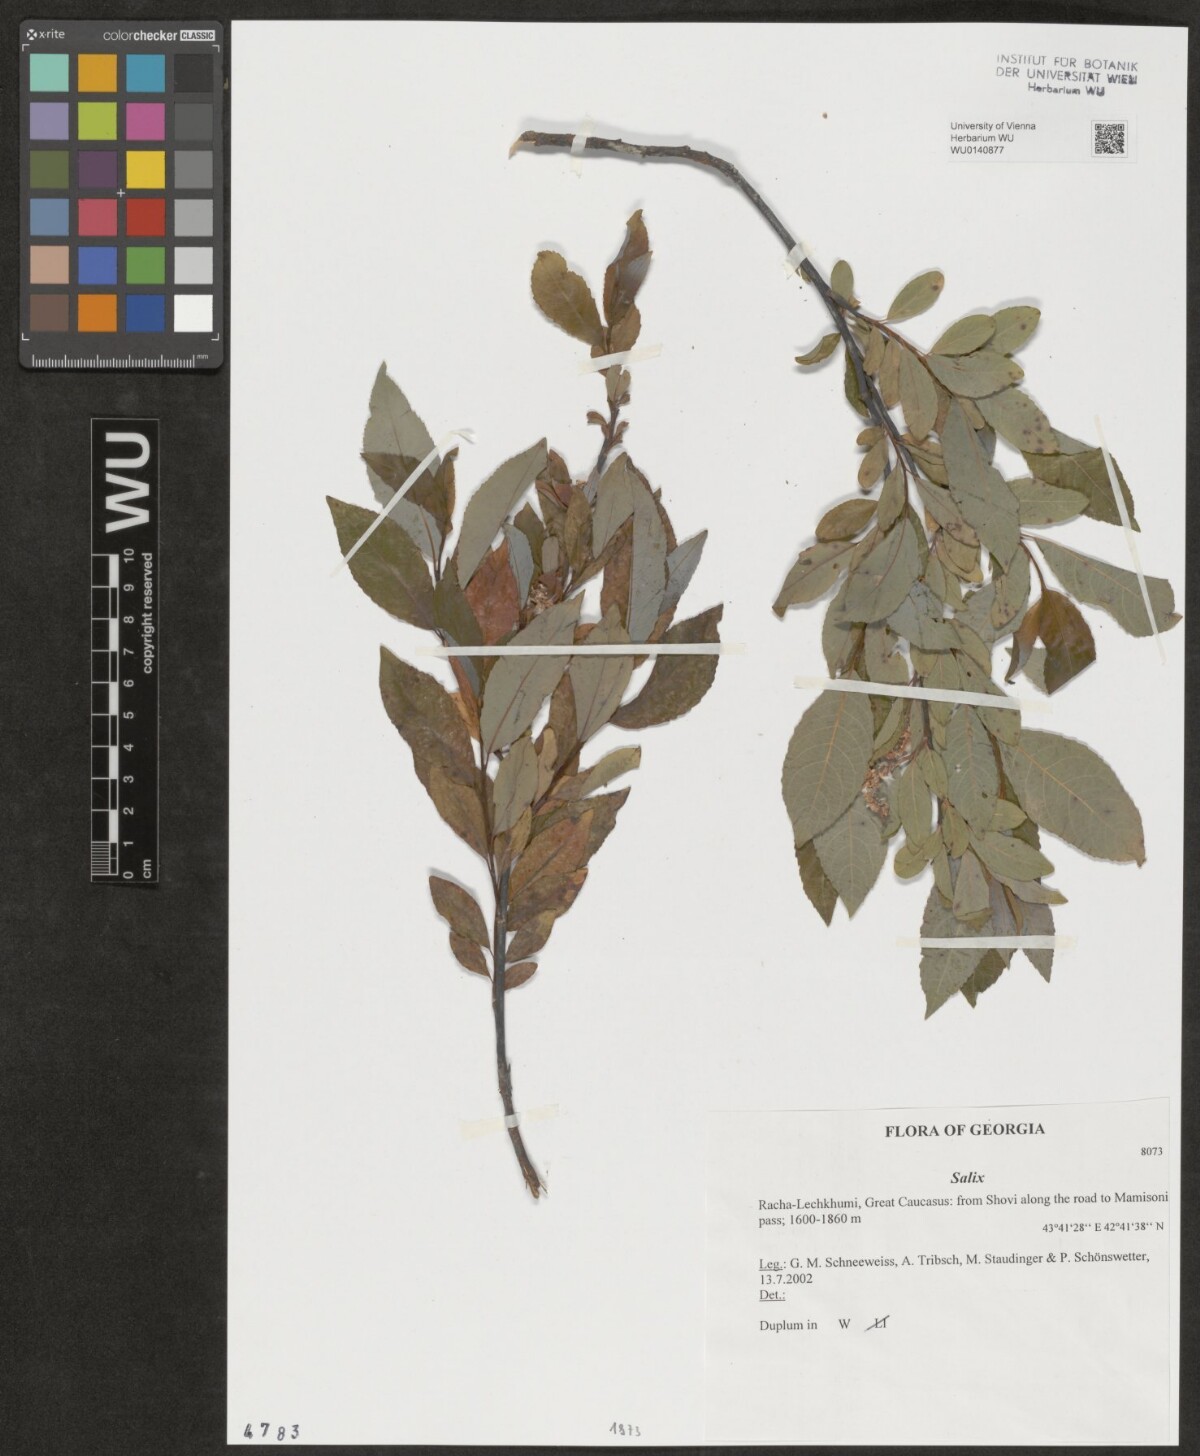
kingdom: Plantae
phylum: Tracheophyta
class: Magnoliopsida
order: Malpighiales
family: Salicaceae
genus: Salix
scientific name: Salix
